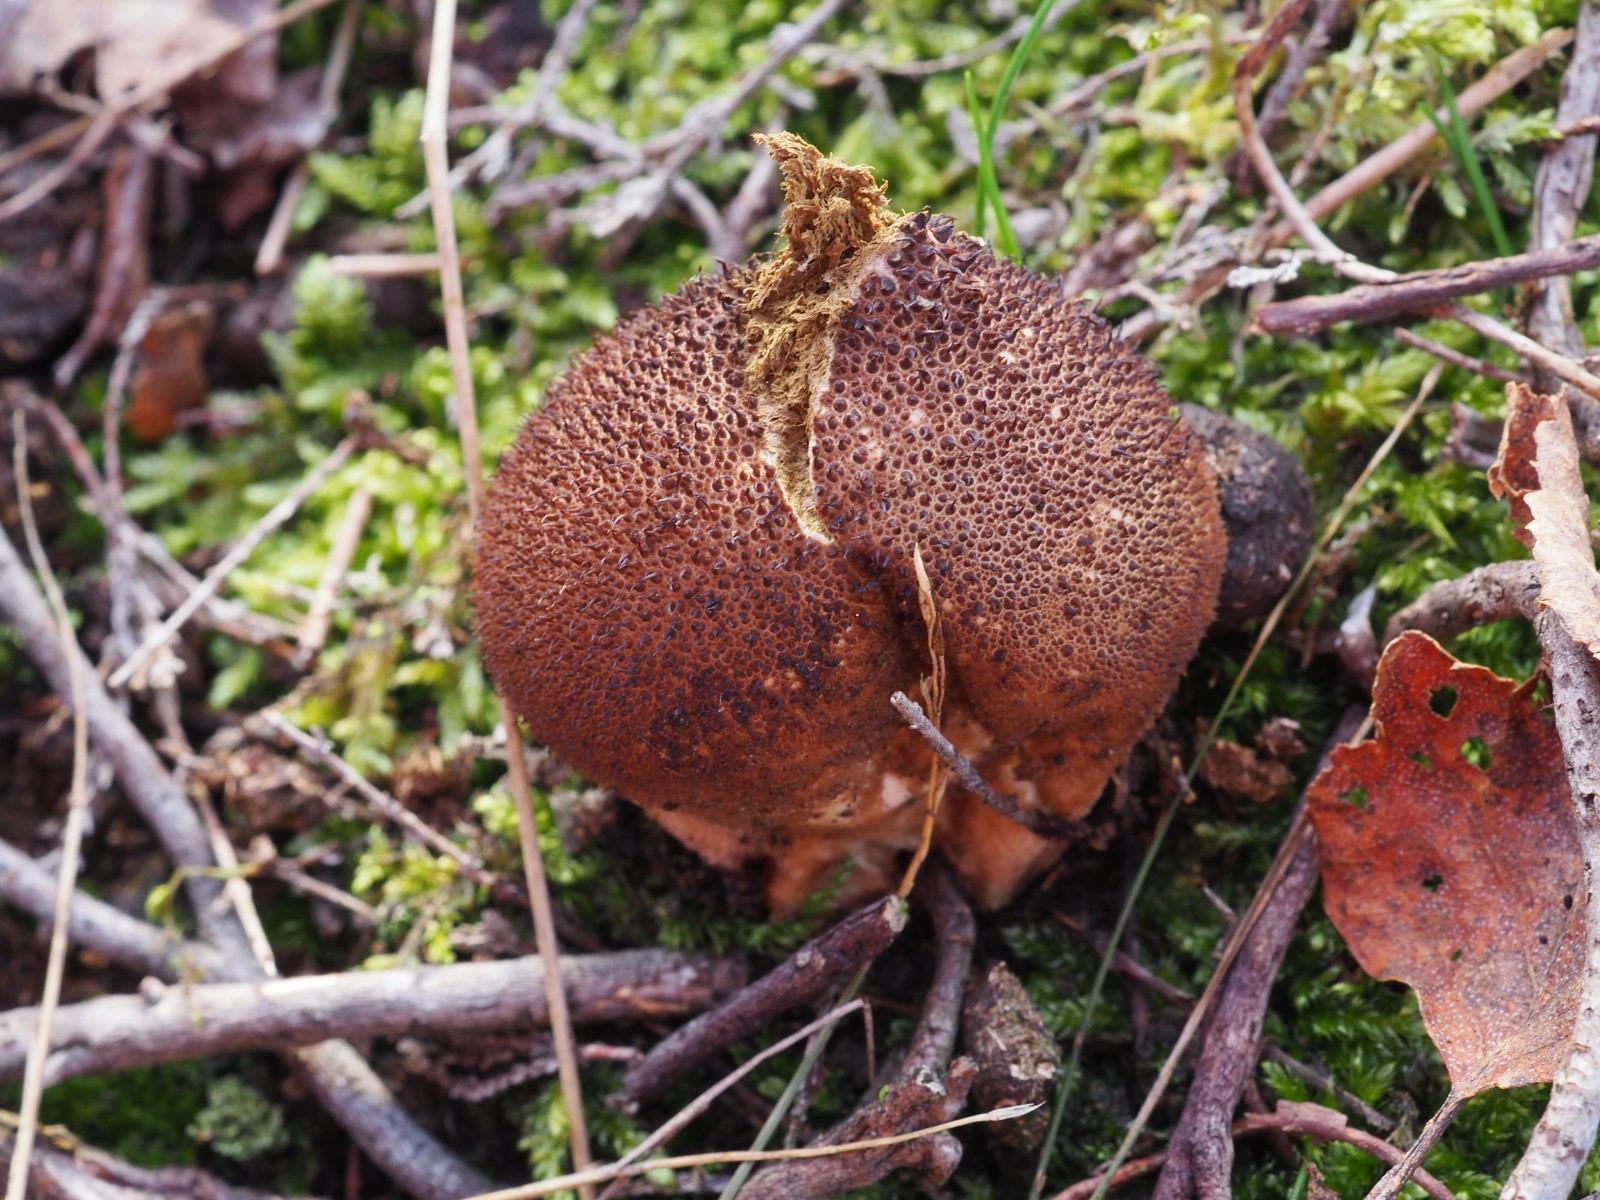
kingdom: Fungi
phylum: Basidiomycota
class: Agaricomycetes
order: Agaricales
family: Lycoperdaceae
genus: Lycoperdon
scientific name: Lycoperdon nigrescens
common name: sortagtig støvbold
